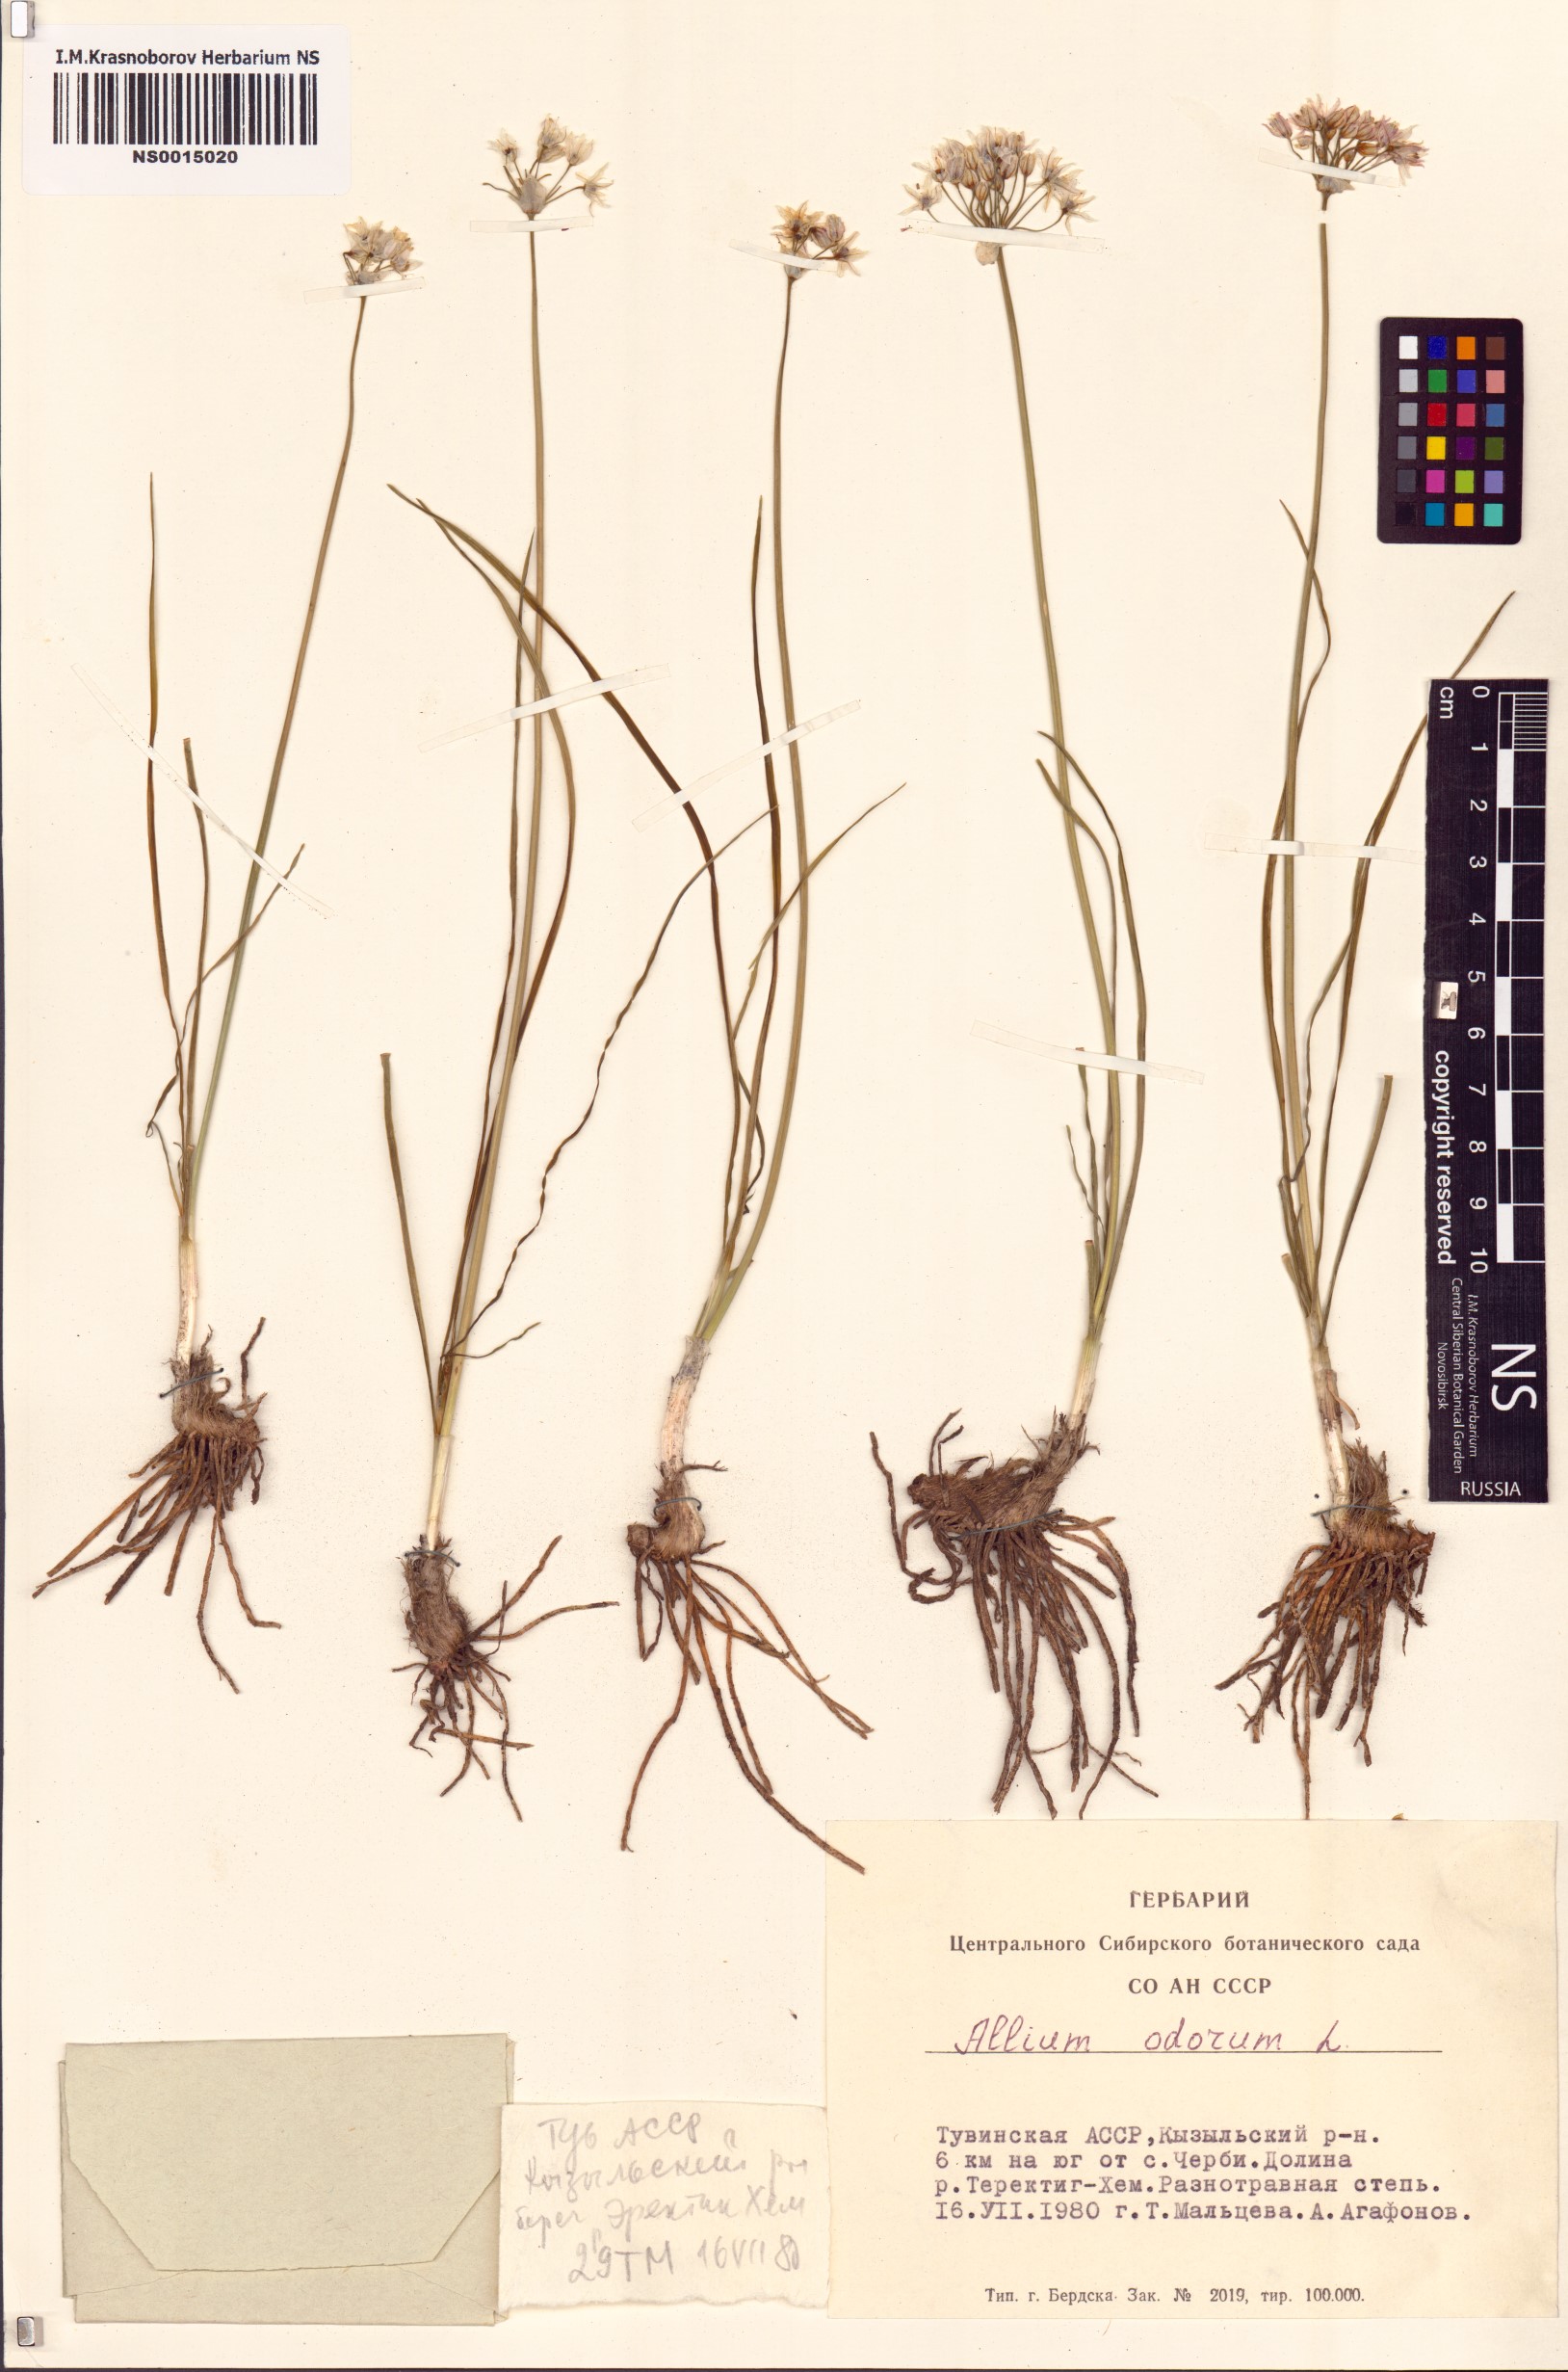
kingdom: Plantae
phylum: Tracheophyta
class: Liliopsida
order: Asparagales
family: Amaryllidaceae
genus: Allium
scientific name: Allium ramosum
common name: Fragrant garlic
